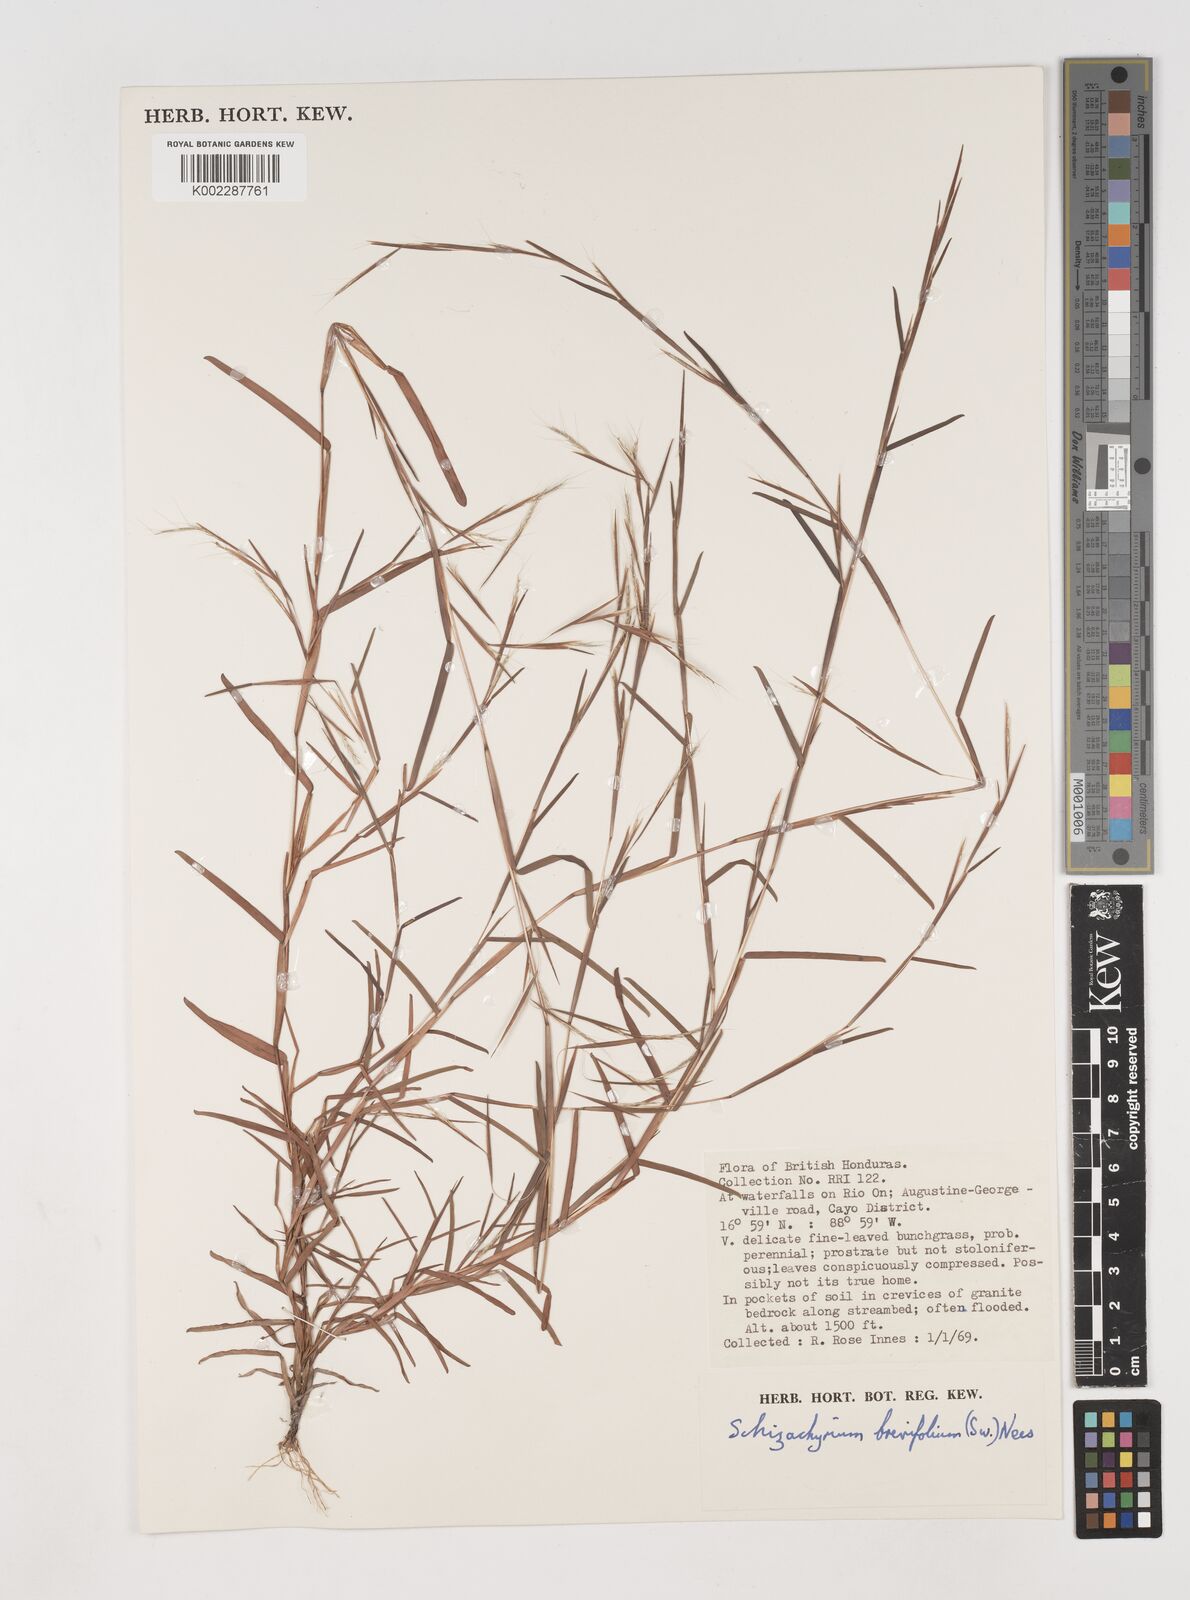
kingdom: Plantae
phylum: Tracheophyta
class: Liliopsida
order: Poales
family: Poaceae
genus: Schizachyrium
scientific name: Schizachyrium brevifolium
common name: Serillo dulce
